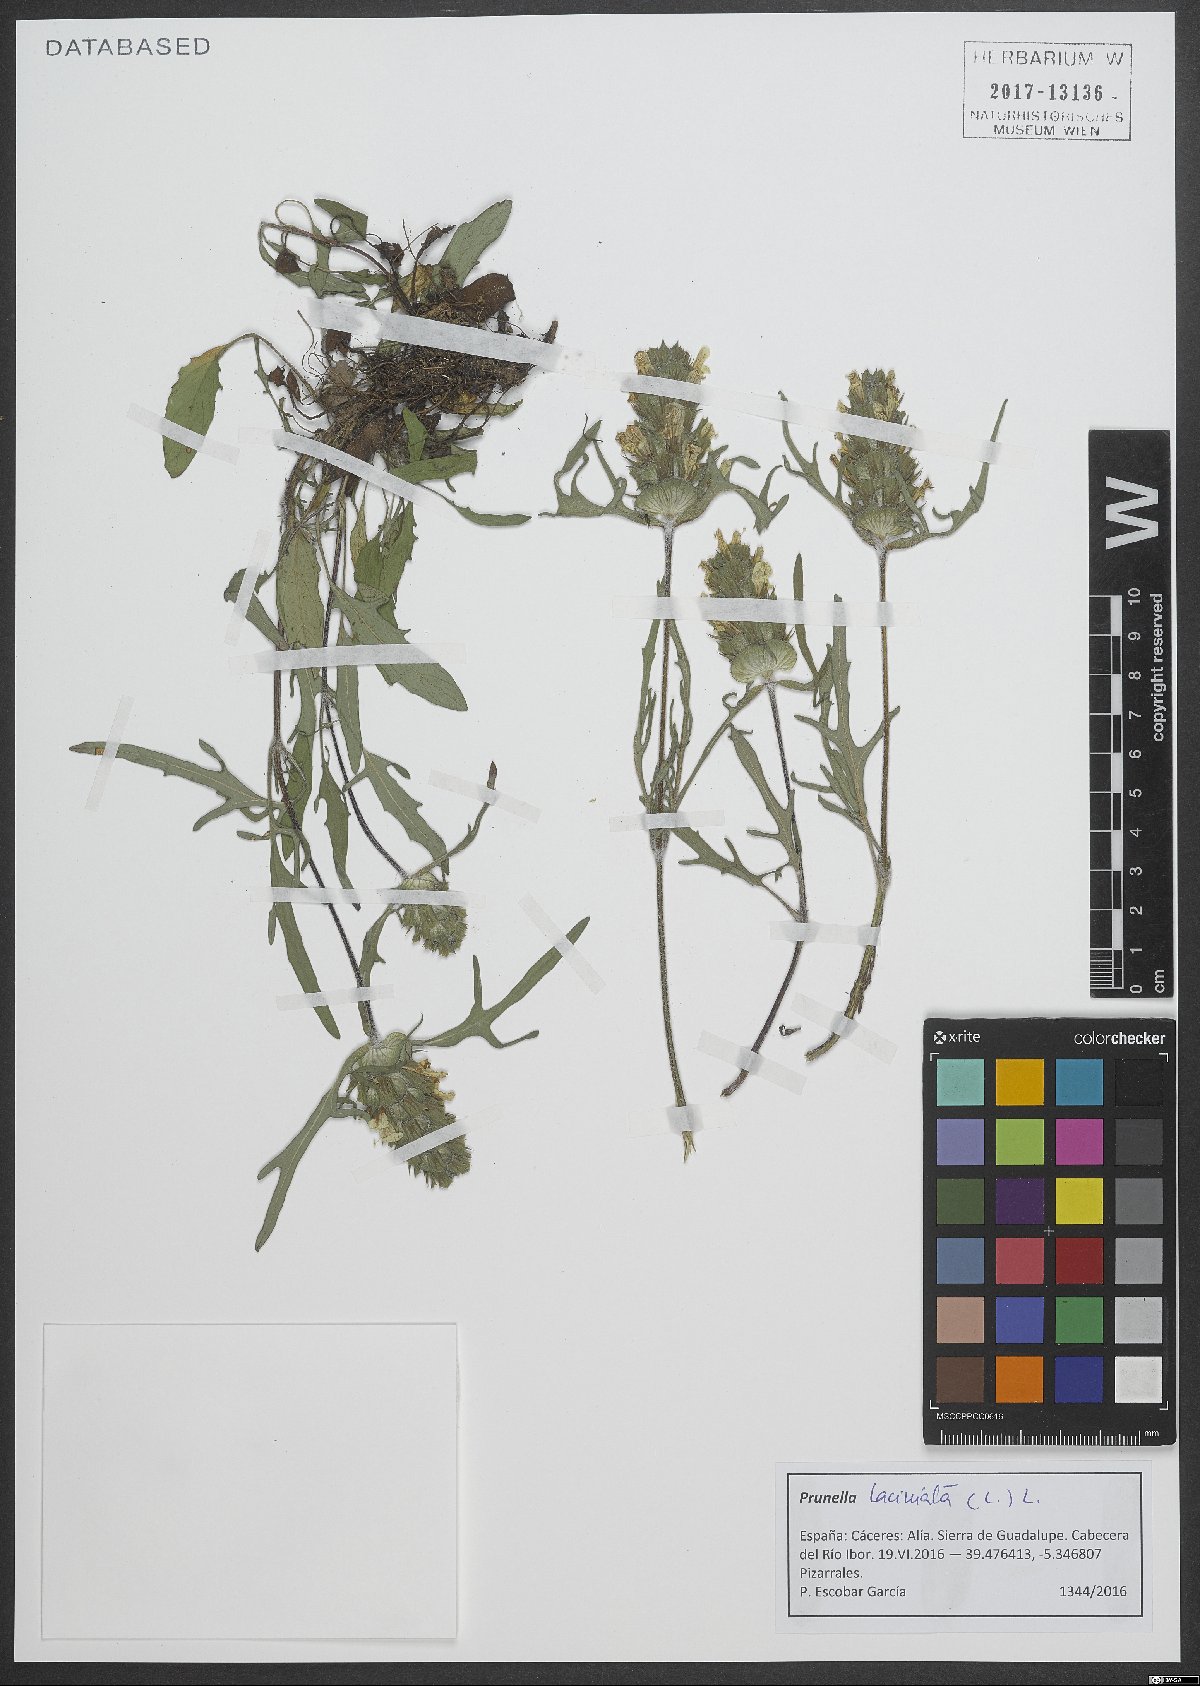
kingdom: Plantae
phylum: Tracheophyta
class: Magnoliopsida
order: Lamiales
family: Lamiaceae
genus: Prunella
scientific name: Prunella laciniata
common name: Cut-leaved selfheal
